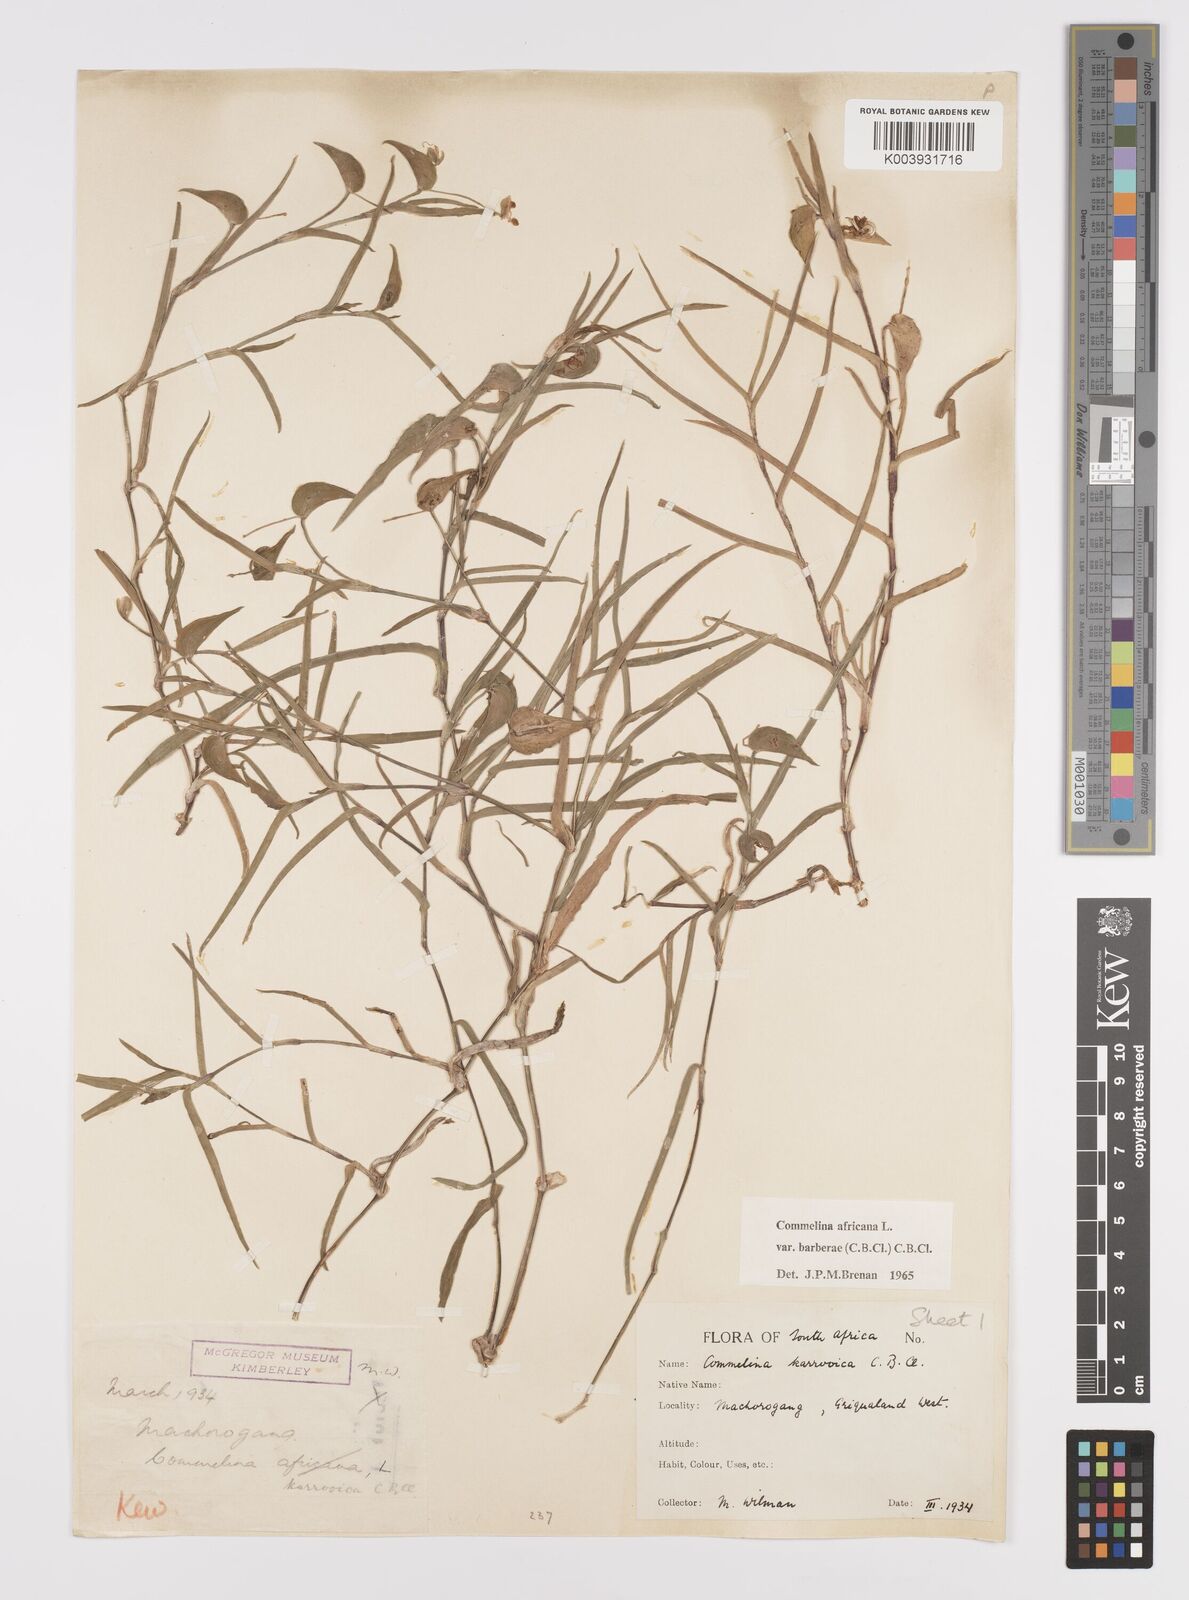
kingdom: Plantae
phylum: Tracheophyta
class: Liliopsida
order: Commelinales
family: Commelinaceae
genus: Commelina
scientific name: Commelina africana
